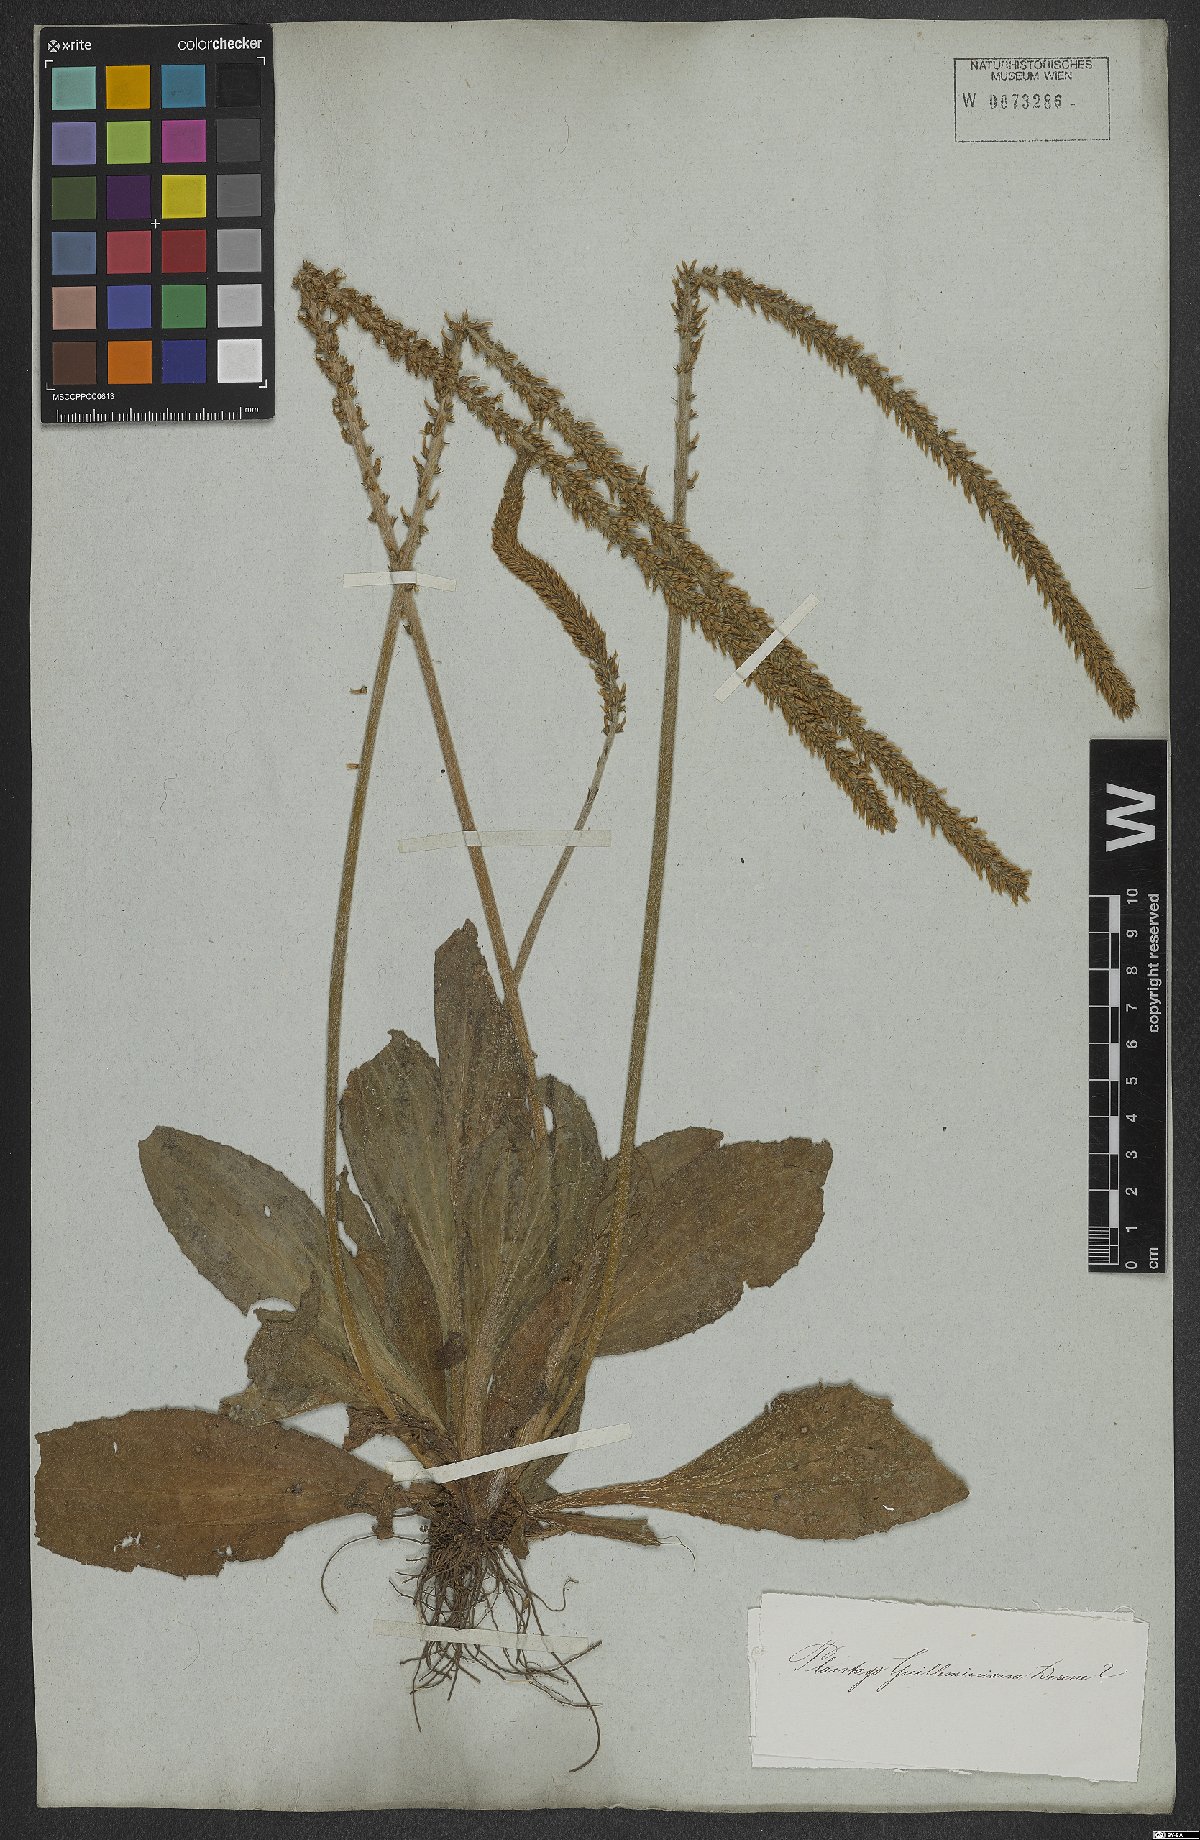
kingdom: Plantae
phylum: Tracheophyta
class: Magnoliopsida
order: Lamiales
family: Plantaginaceae
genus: Plantago
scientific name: Plantago guilleminiana
